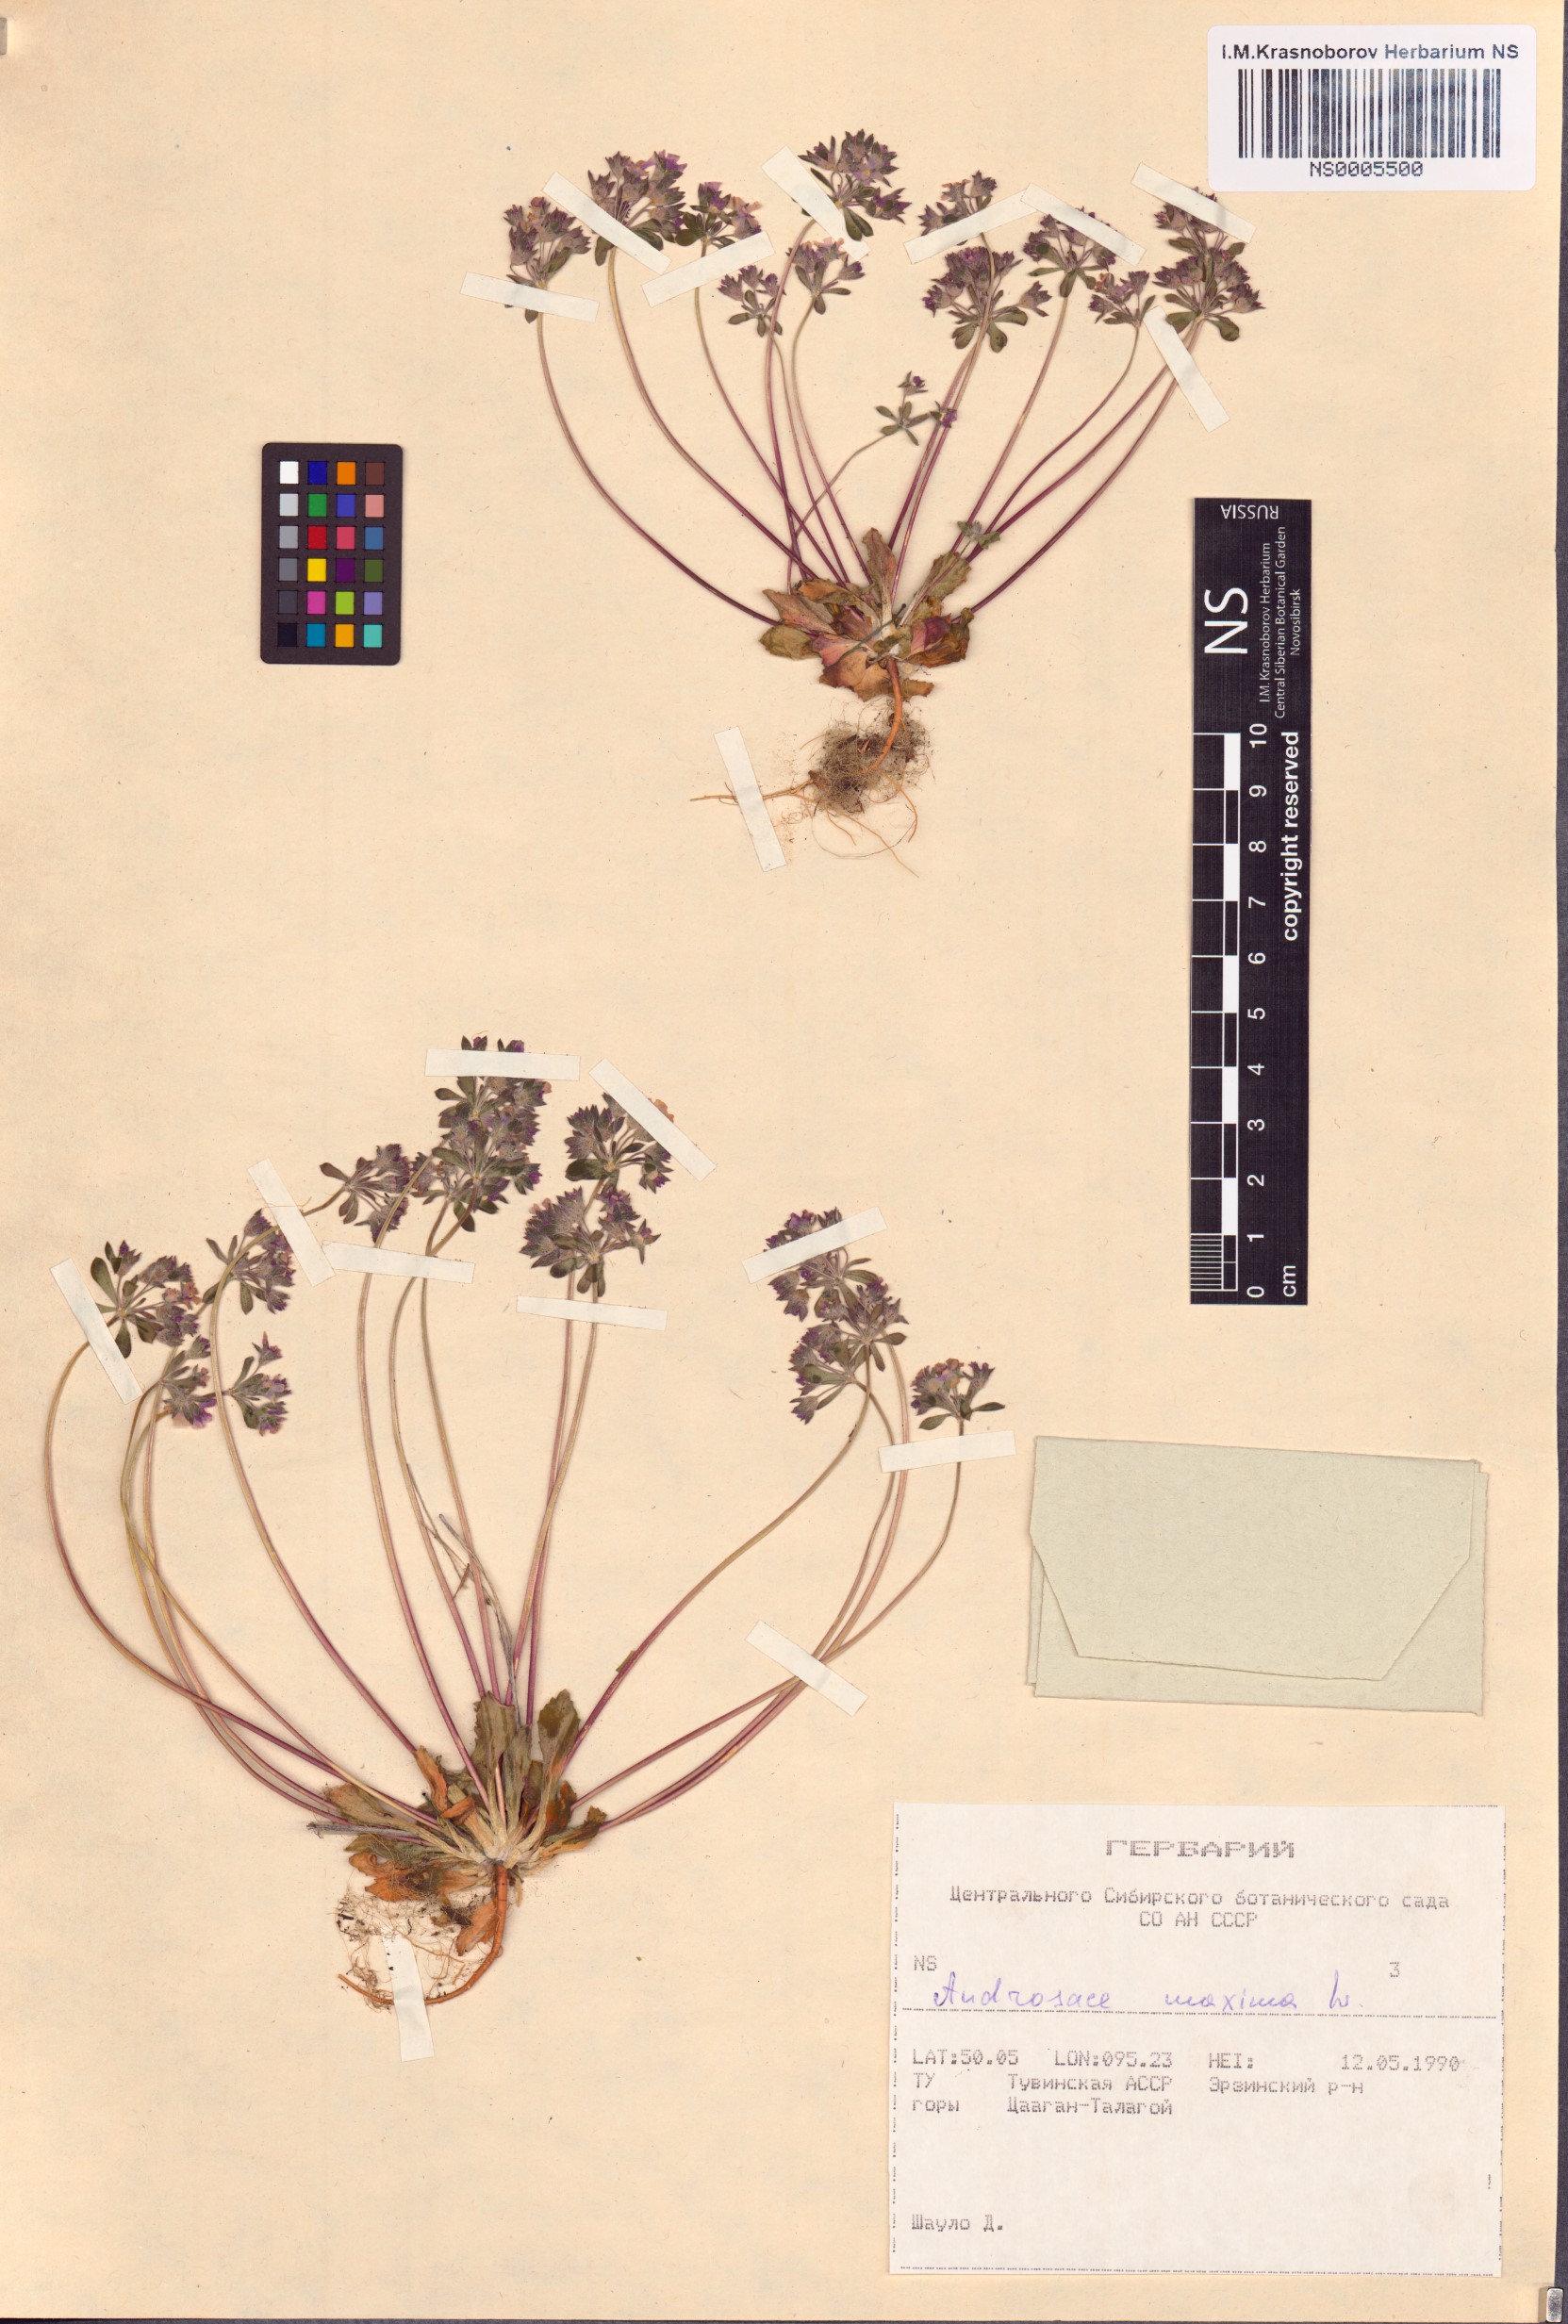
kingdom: Plantae
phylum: Tracheophyta
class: Magnoliopsida
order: Ericales
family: Primulaceae
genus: Androsace
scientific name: Androsace maxima
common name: Annual androsace
